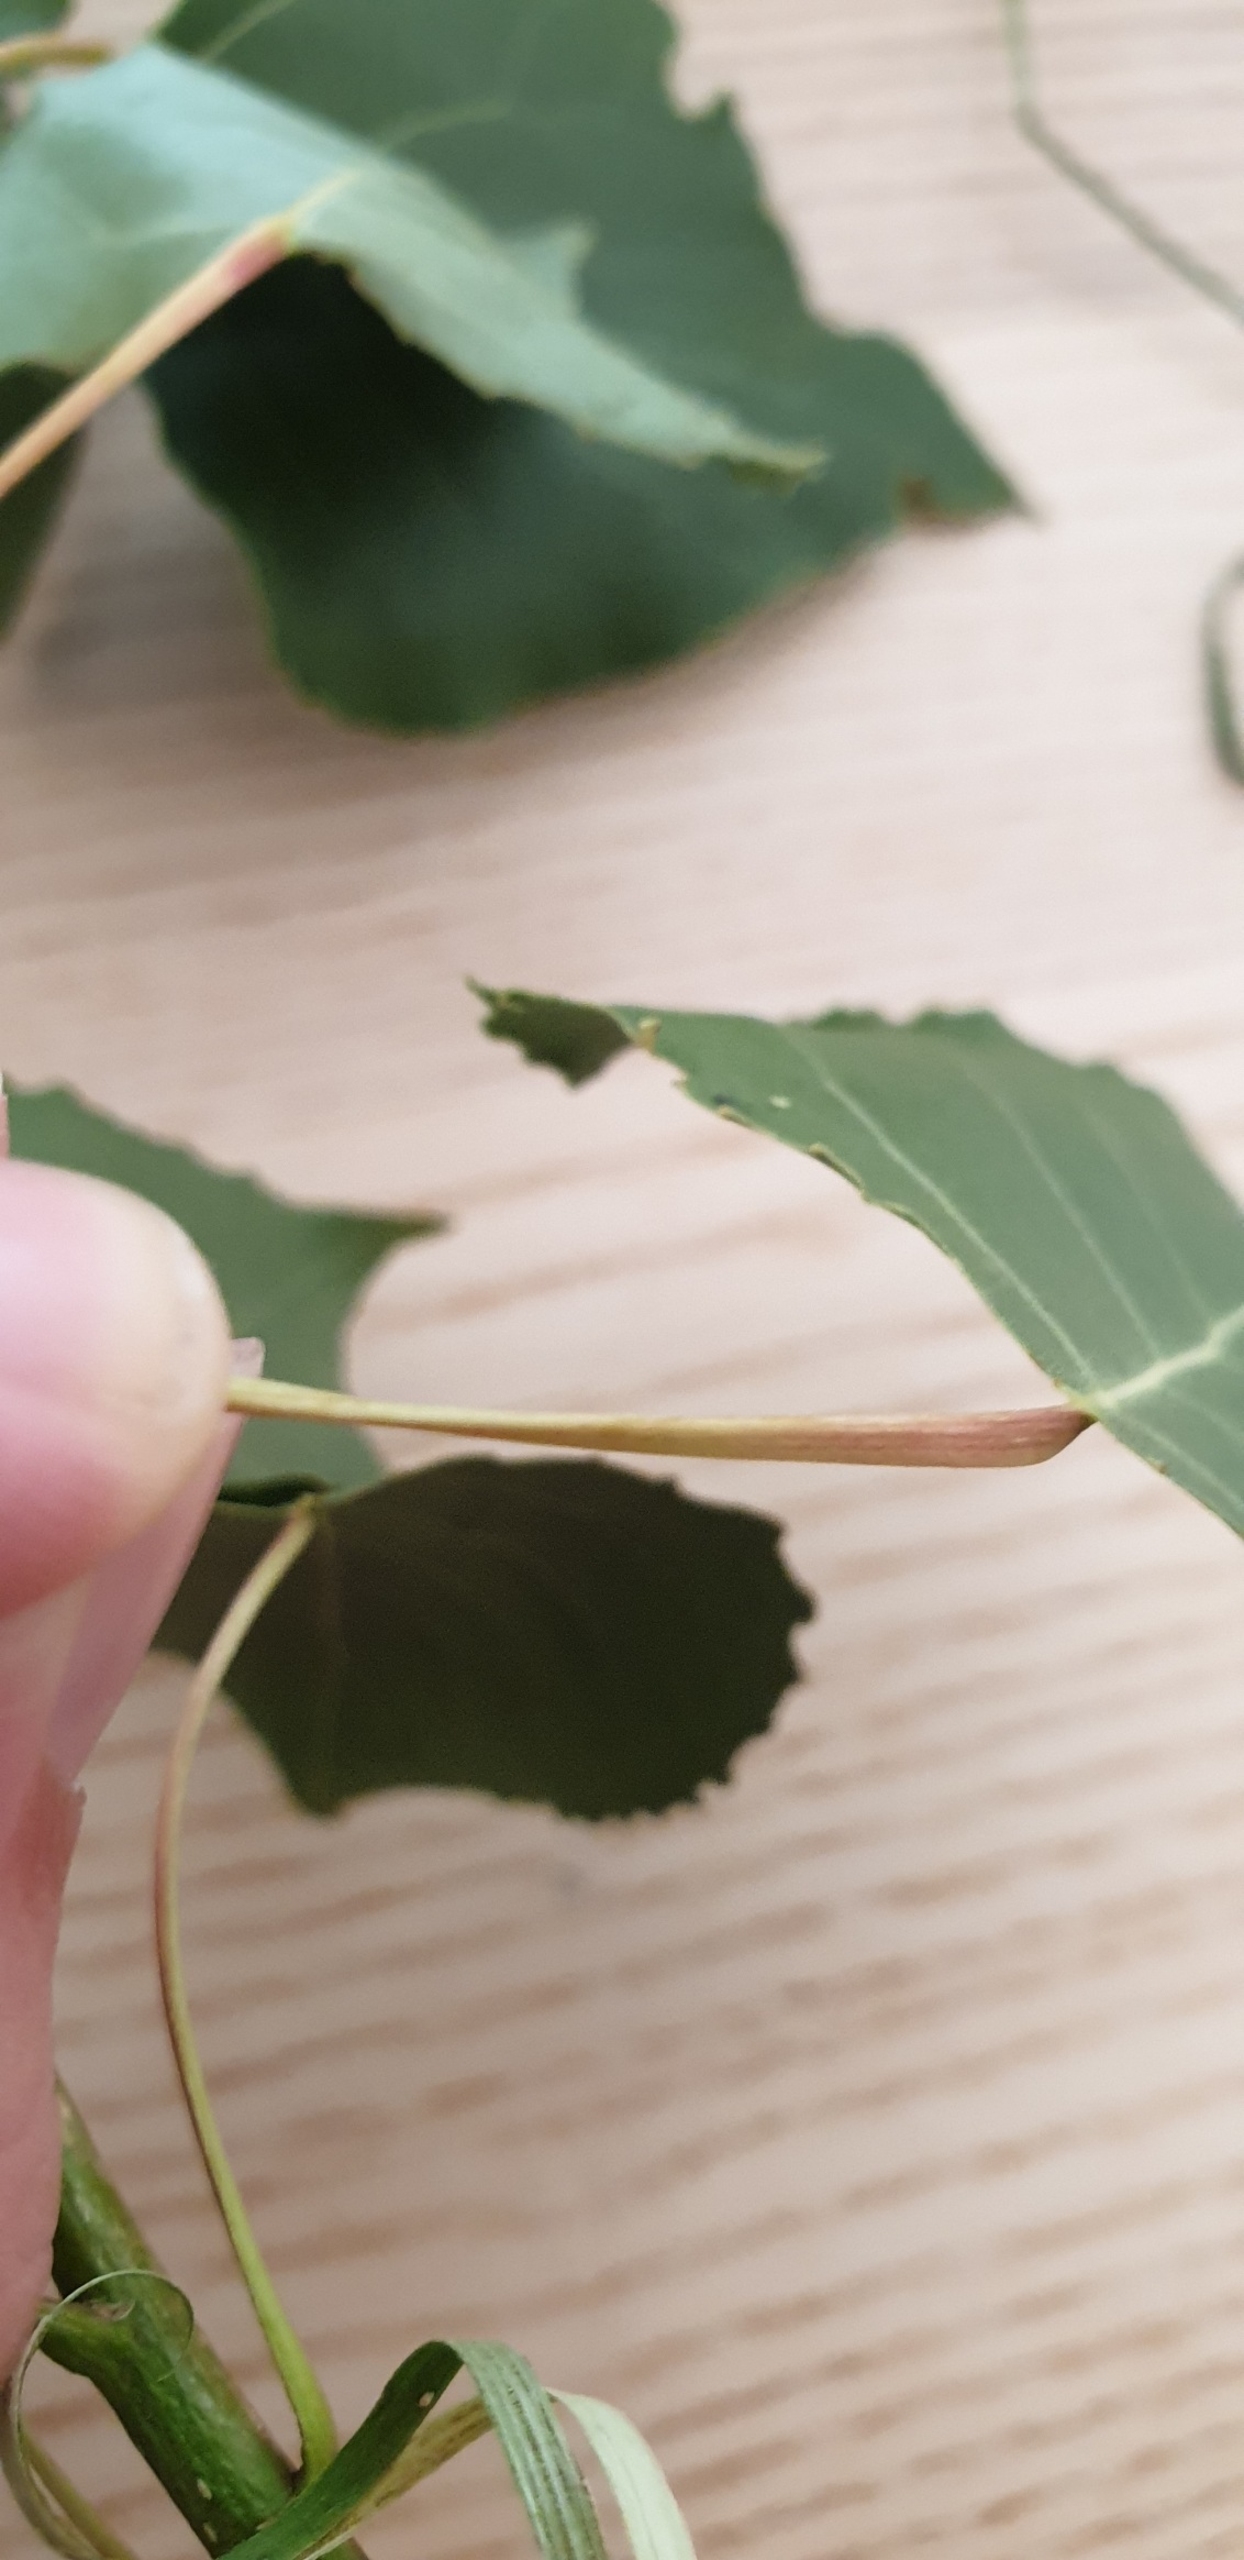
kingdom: Plantae
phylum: Tracheophyta
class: Magnoliopsida
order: Malpighiales
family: Salicaceae
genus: Populus
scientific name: Populus nigra
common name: Sort-poppel
